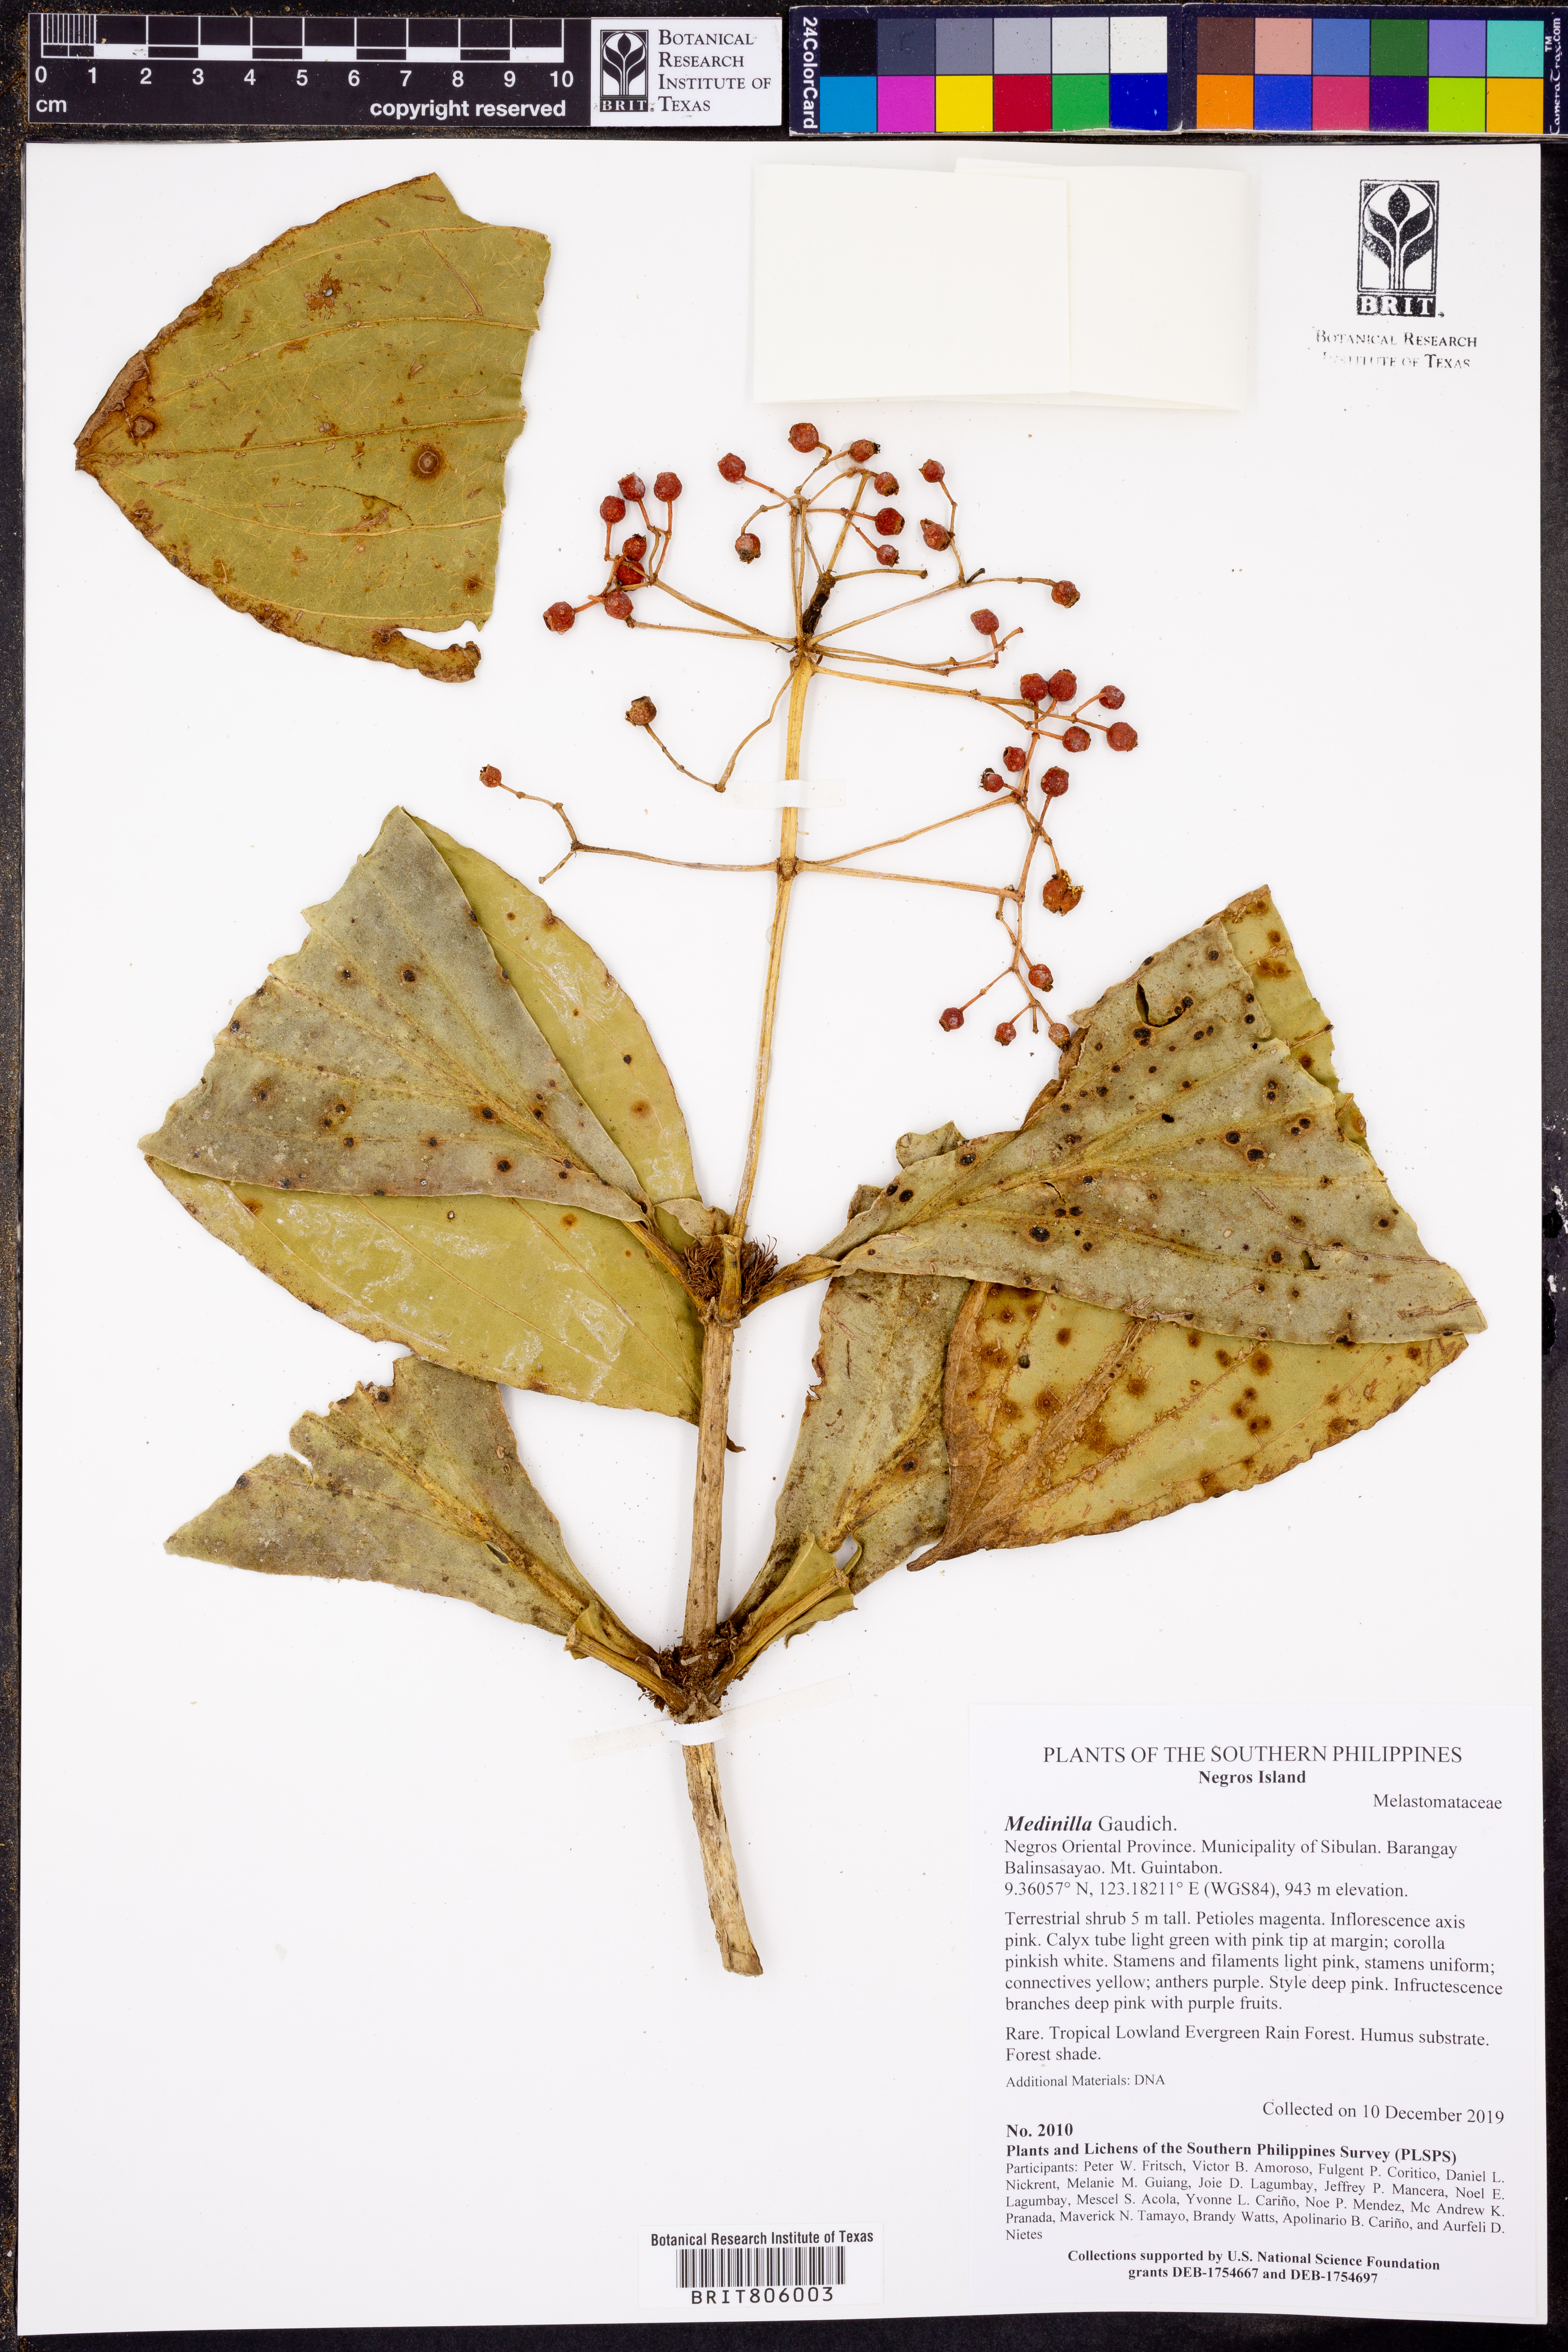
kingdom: Plantae
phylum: Tracheophyta
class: Magnoliopsida
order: Myrtales
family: Melastomataceae
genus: Medinilla
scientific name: Medinilla
